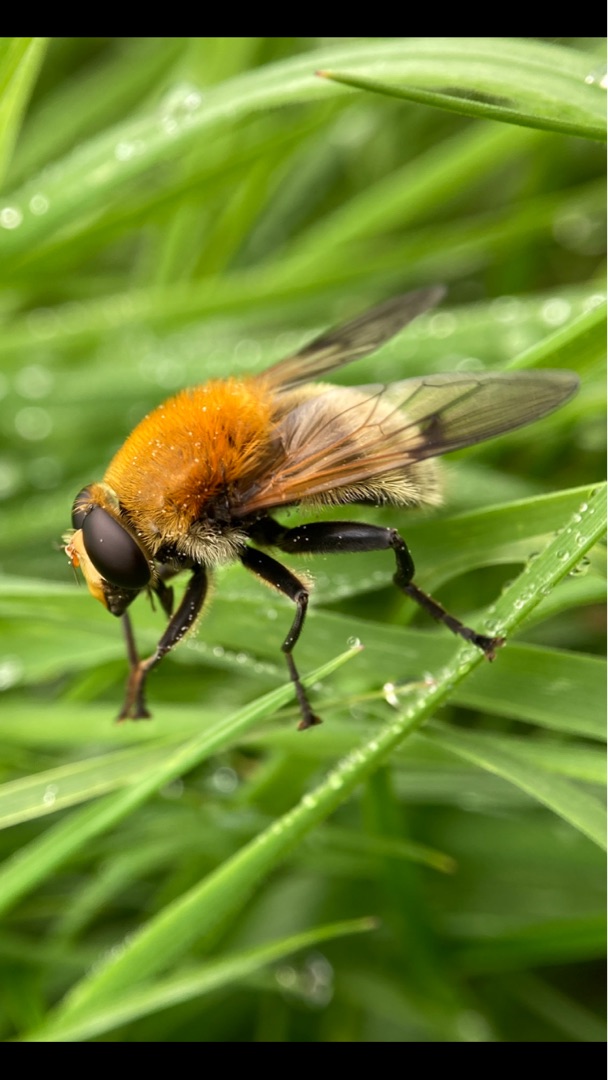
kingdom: Animalia
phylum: Arthropoda
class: Insecta
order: Diptera
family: Syrphidae
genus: Sericomyia
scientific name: Sericomyia superbiens
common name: Brun bjørnesvirreflue
